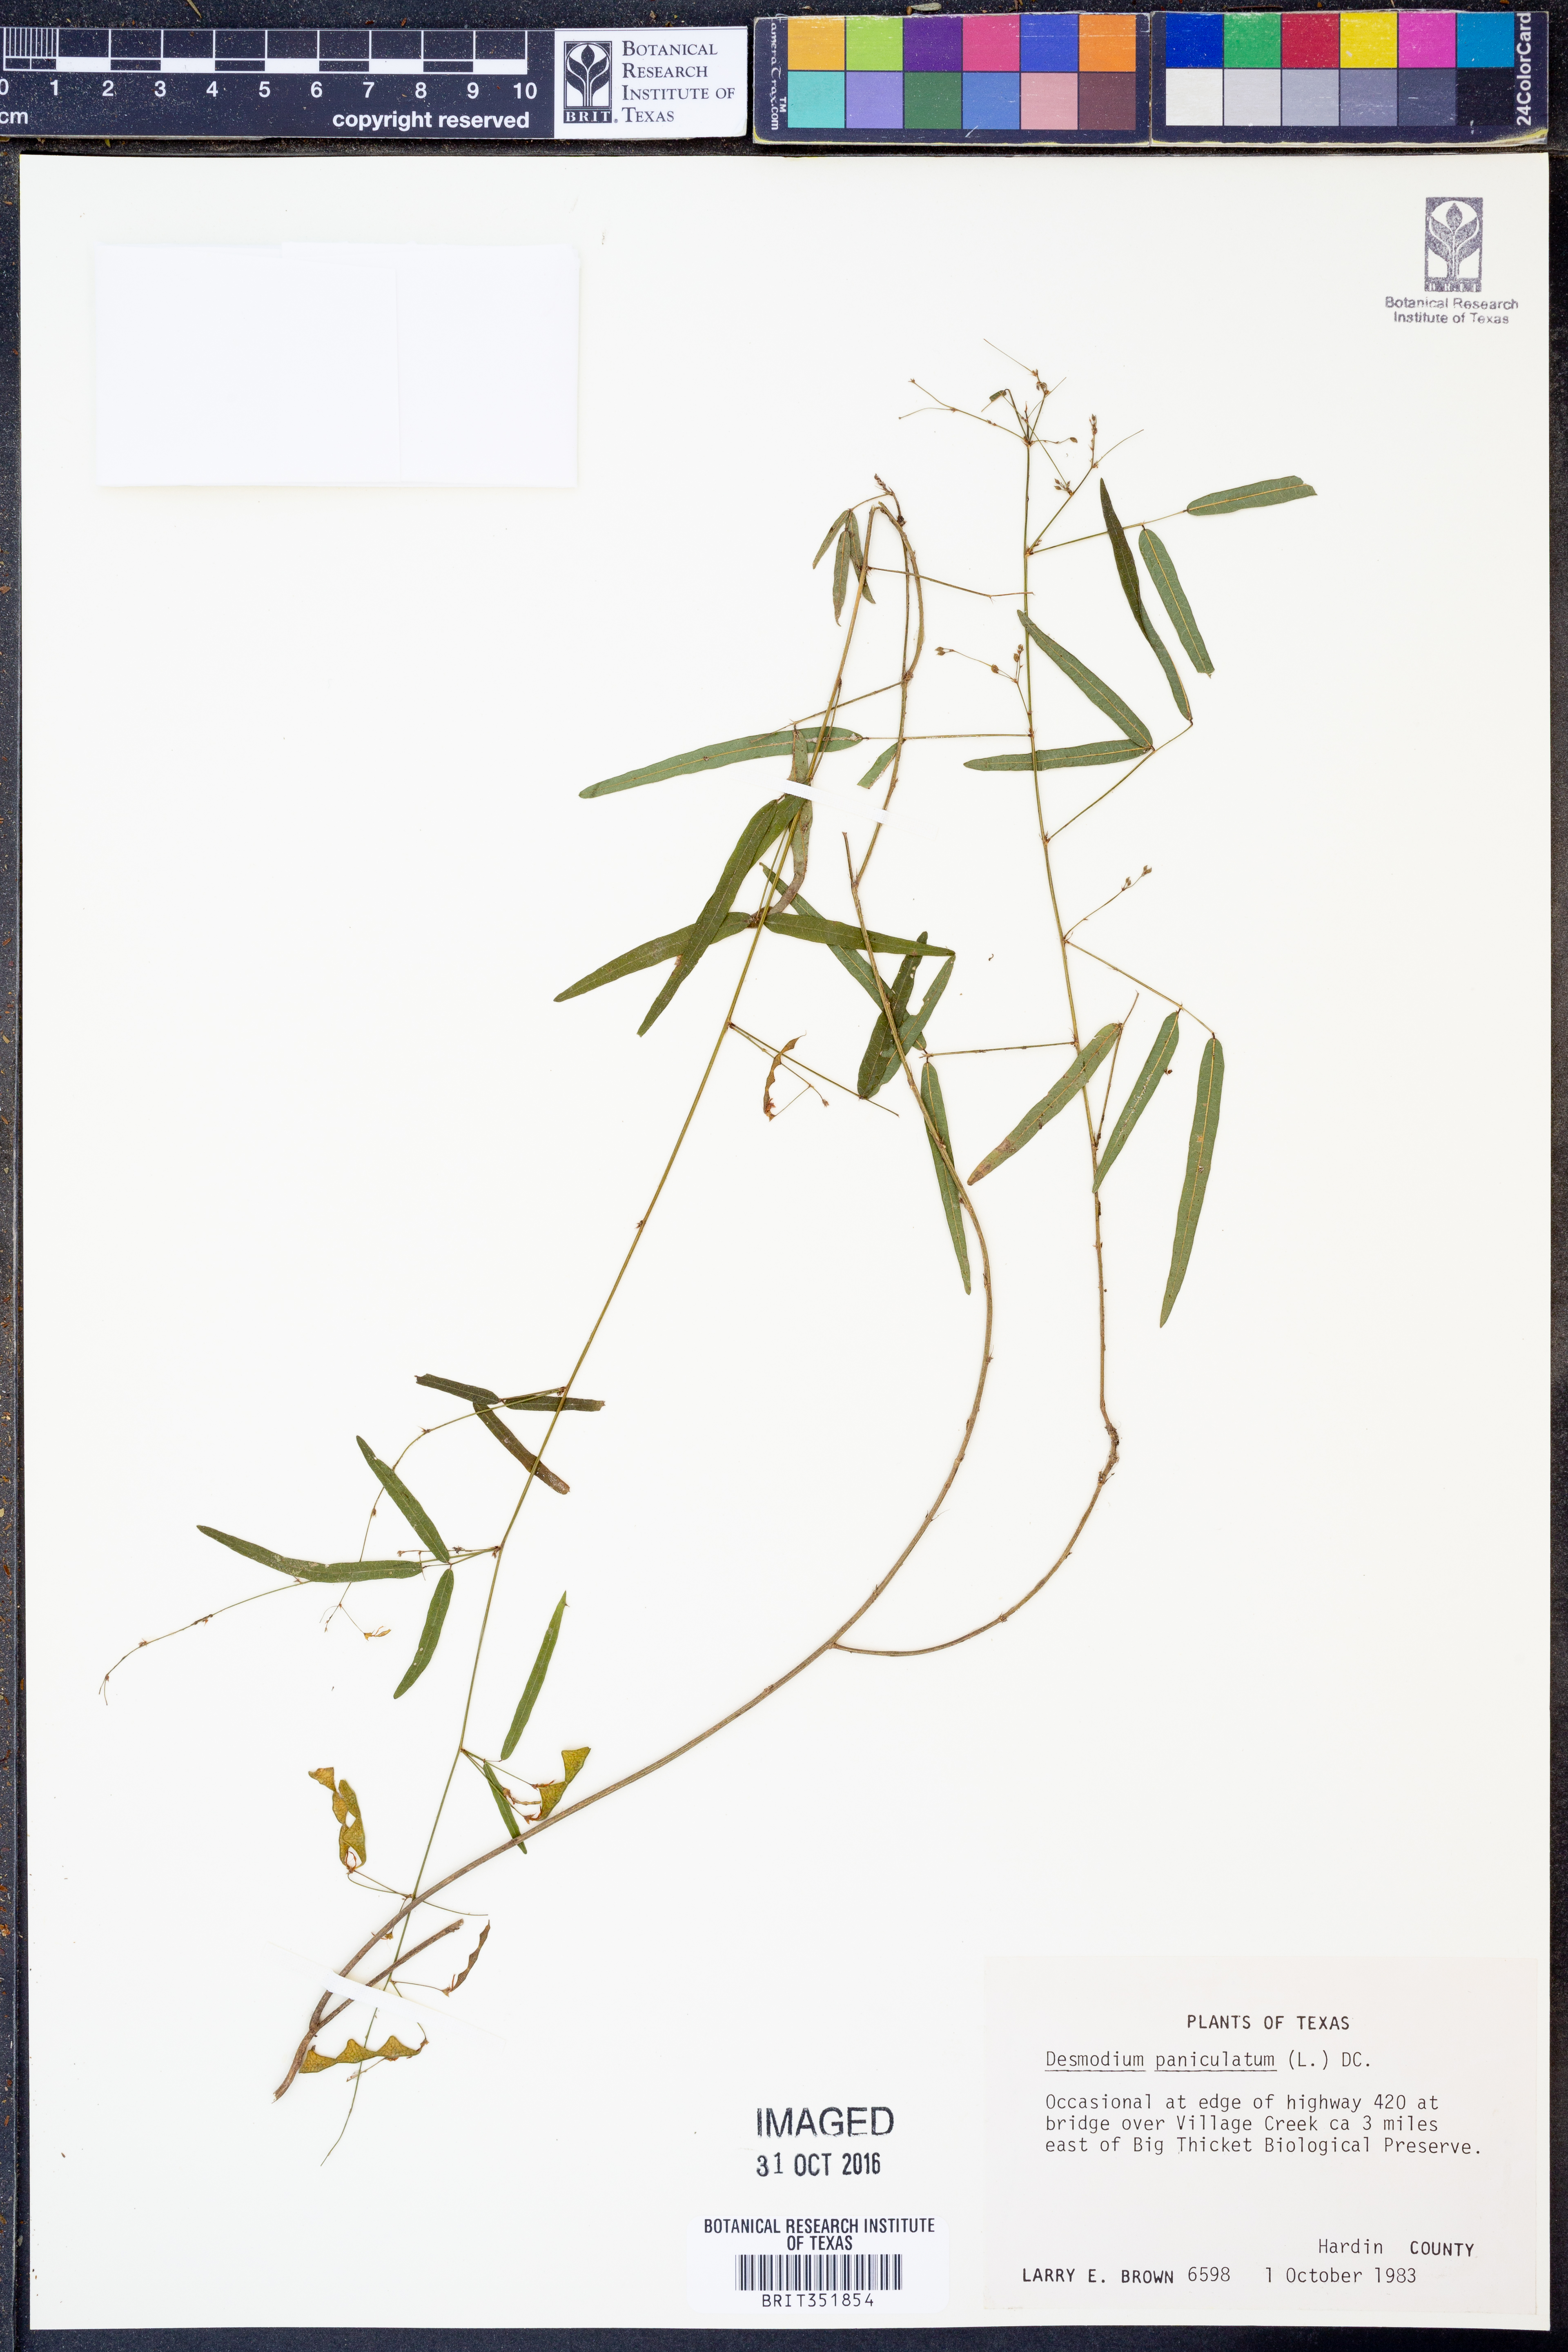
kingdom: Plantae
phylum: Tracheophyta
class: Magnoliopsida
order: Fabales
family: Fabaceae
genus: Desmodium
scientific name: Desmodium paniculatum
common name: Panicled tick-clover
